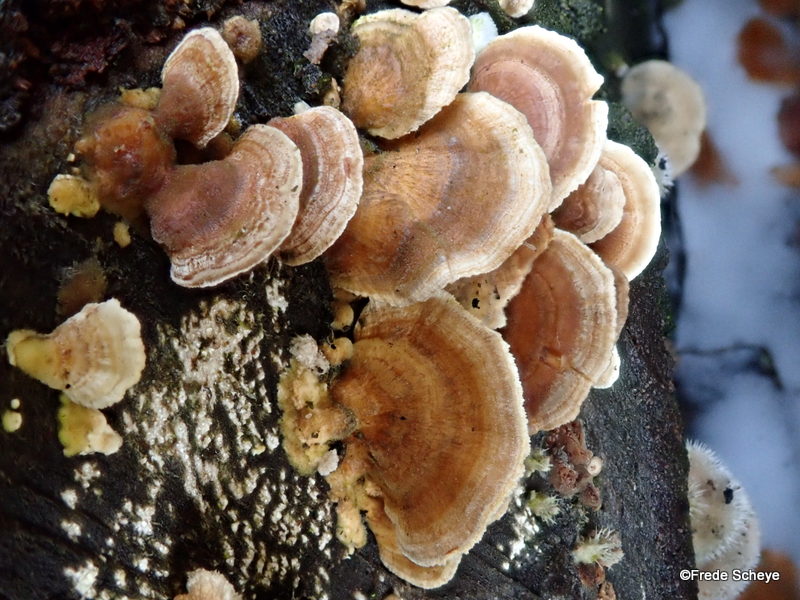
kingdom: Fungi
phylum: Basidiomycota
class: Agaricomycetes
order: Polyporales
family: Polyporaceae
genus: Trametes
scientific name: Trametes versicolor
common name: broget læderporesvamp
